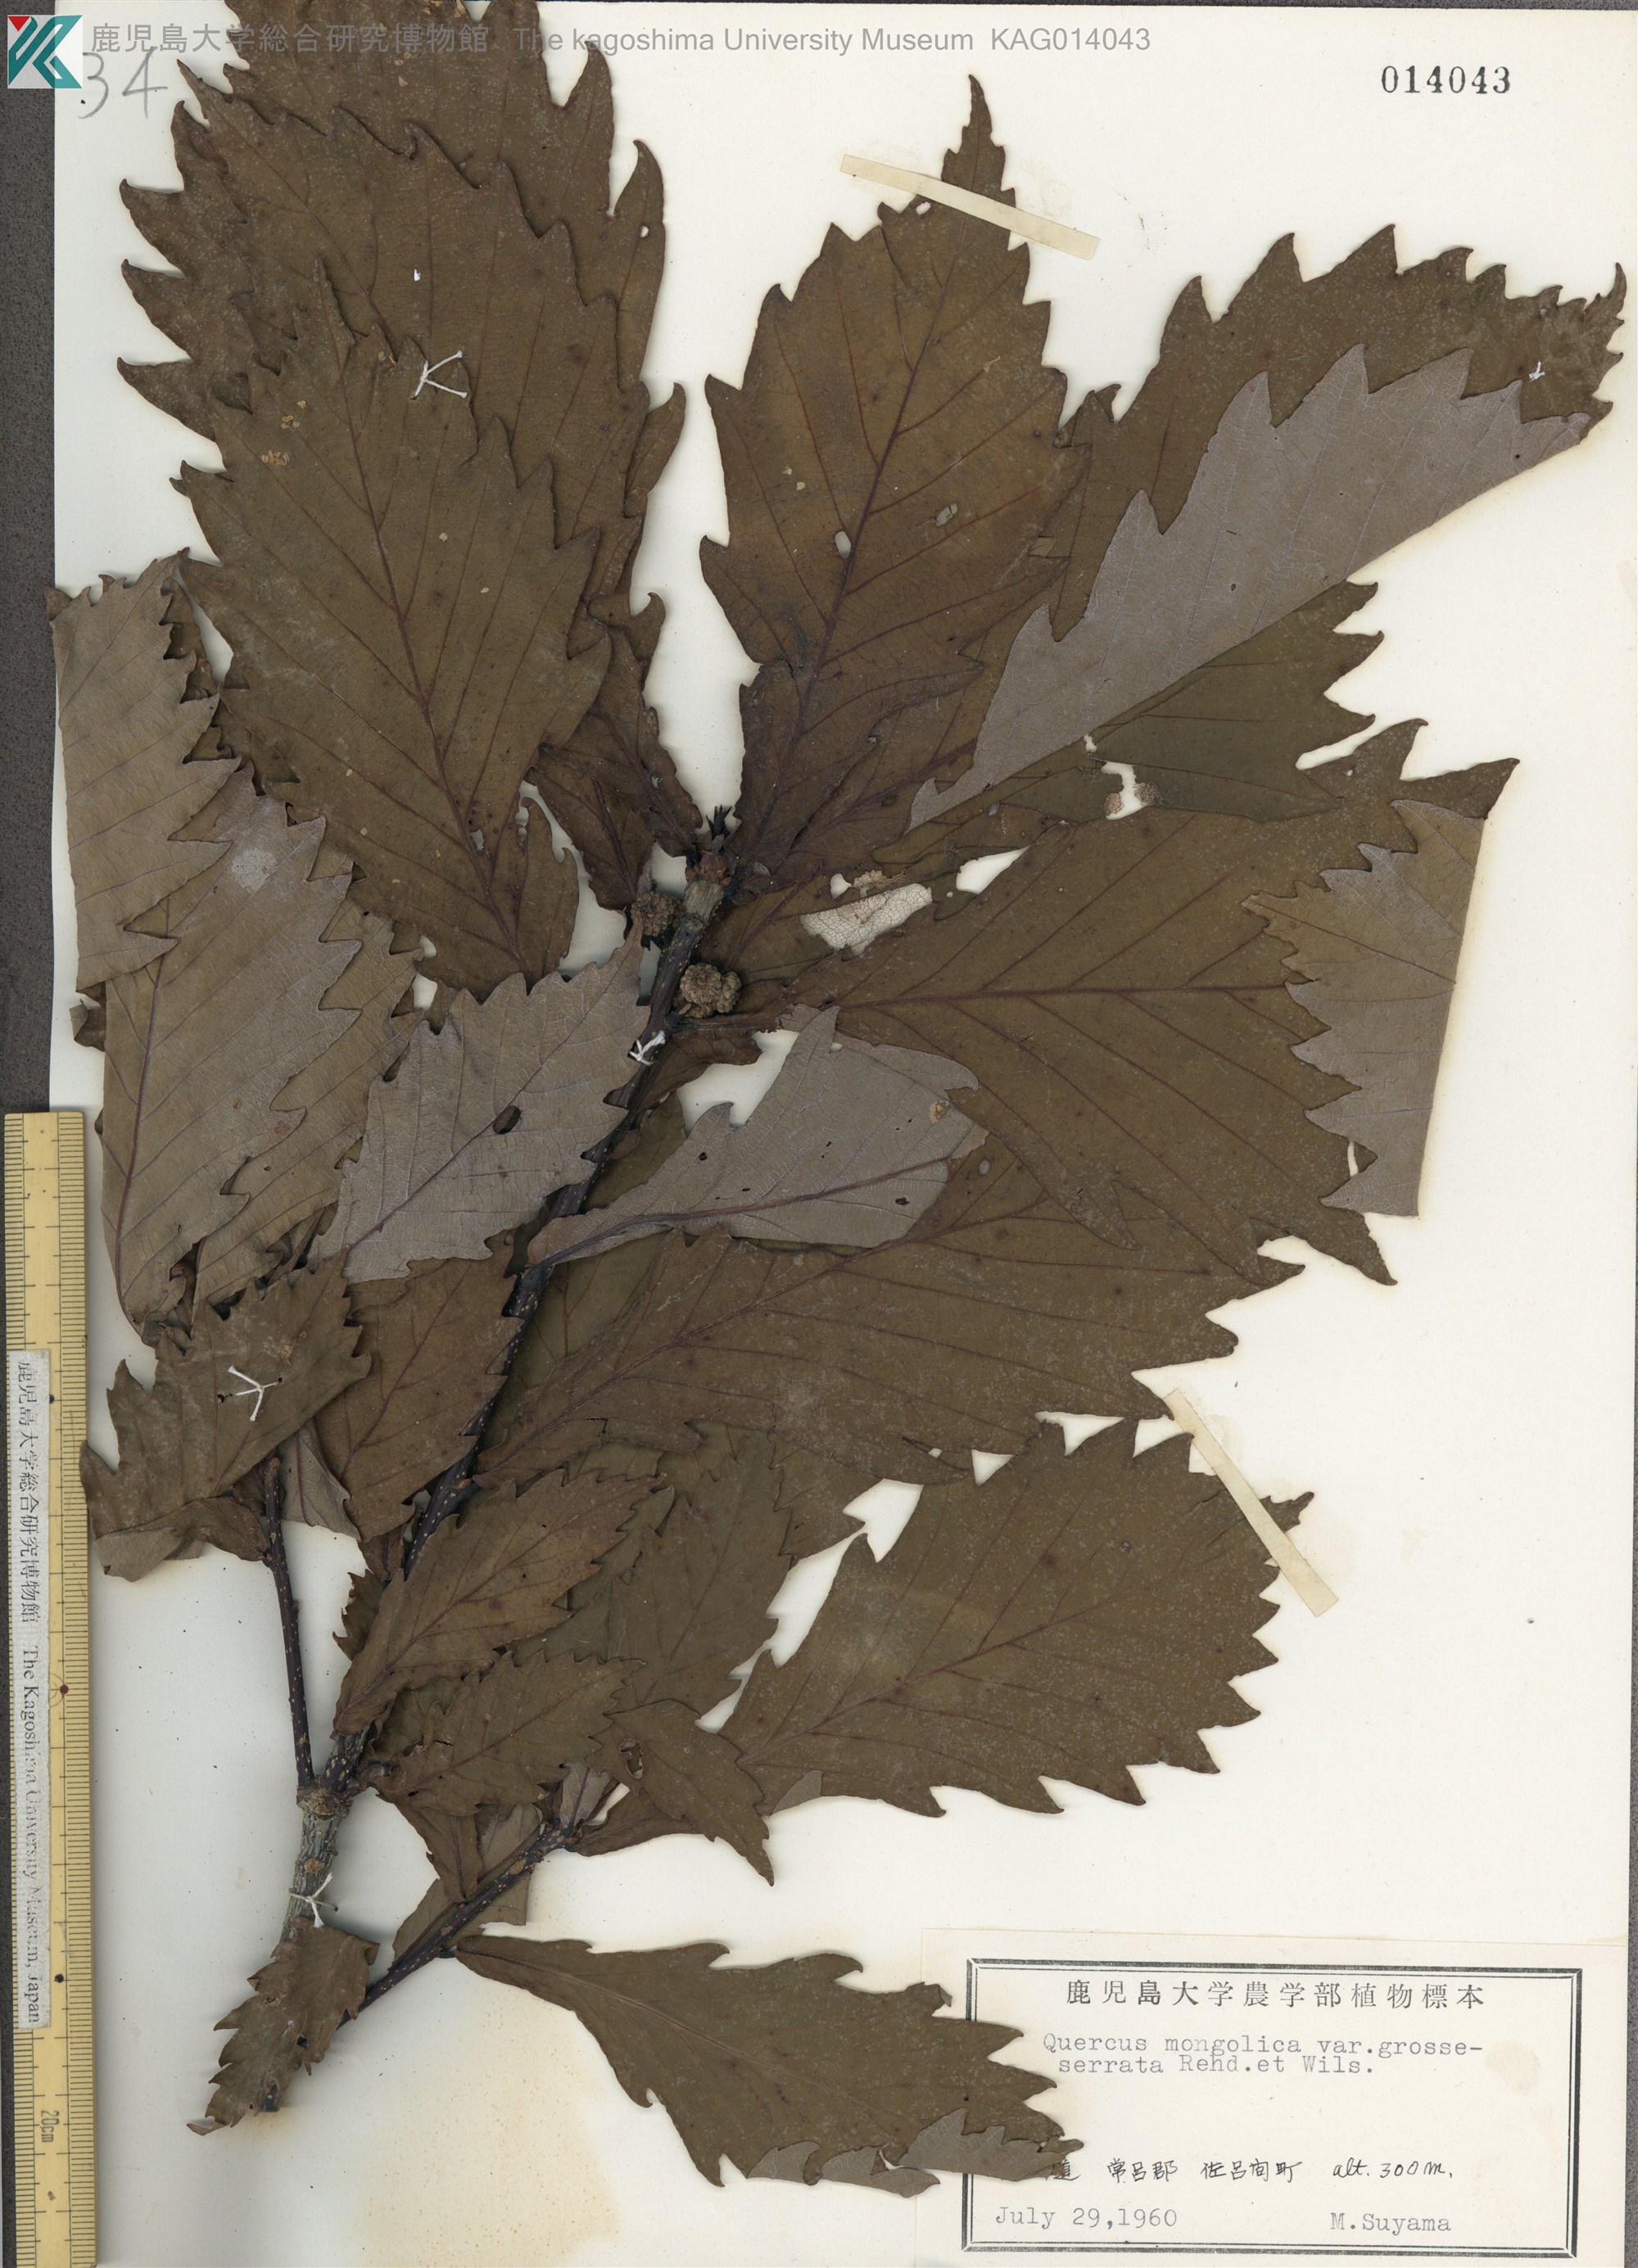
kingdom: Plantae
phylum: Tracheophyta
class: Magnoliopsida
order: Fagales
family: Fagaceae
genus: Quercus
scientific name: Quercus crispula
